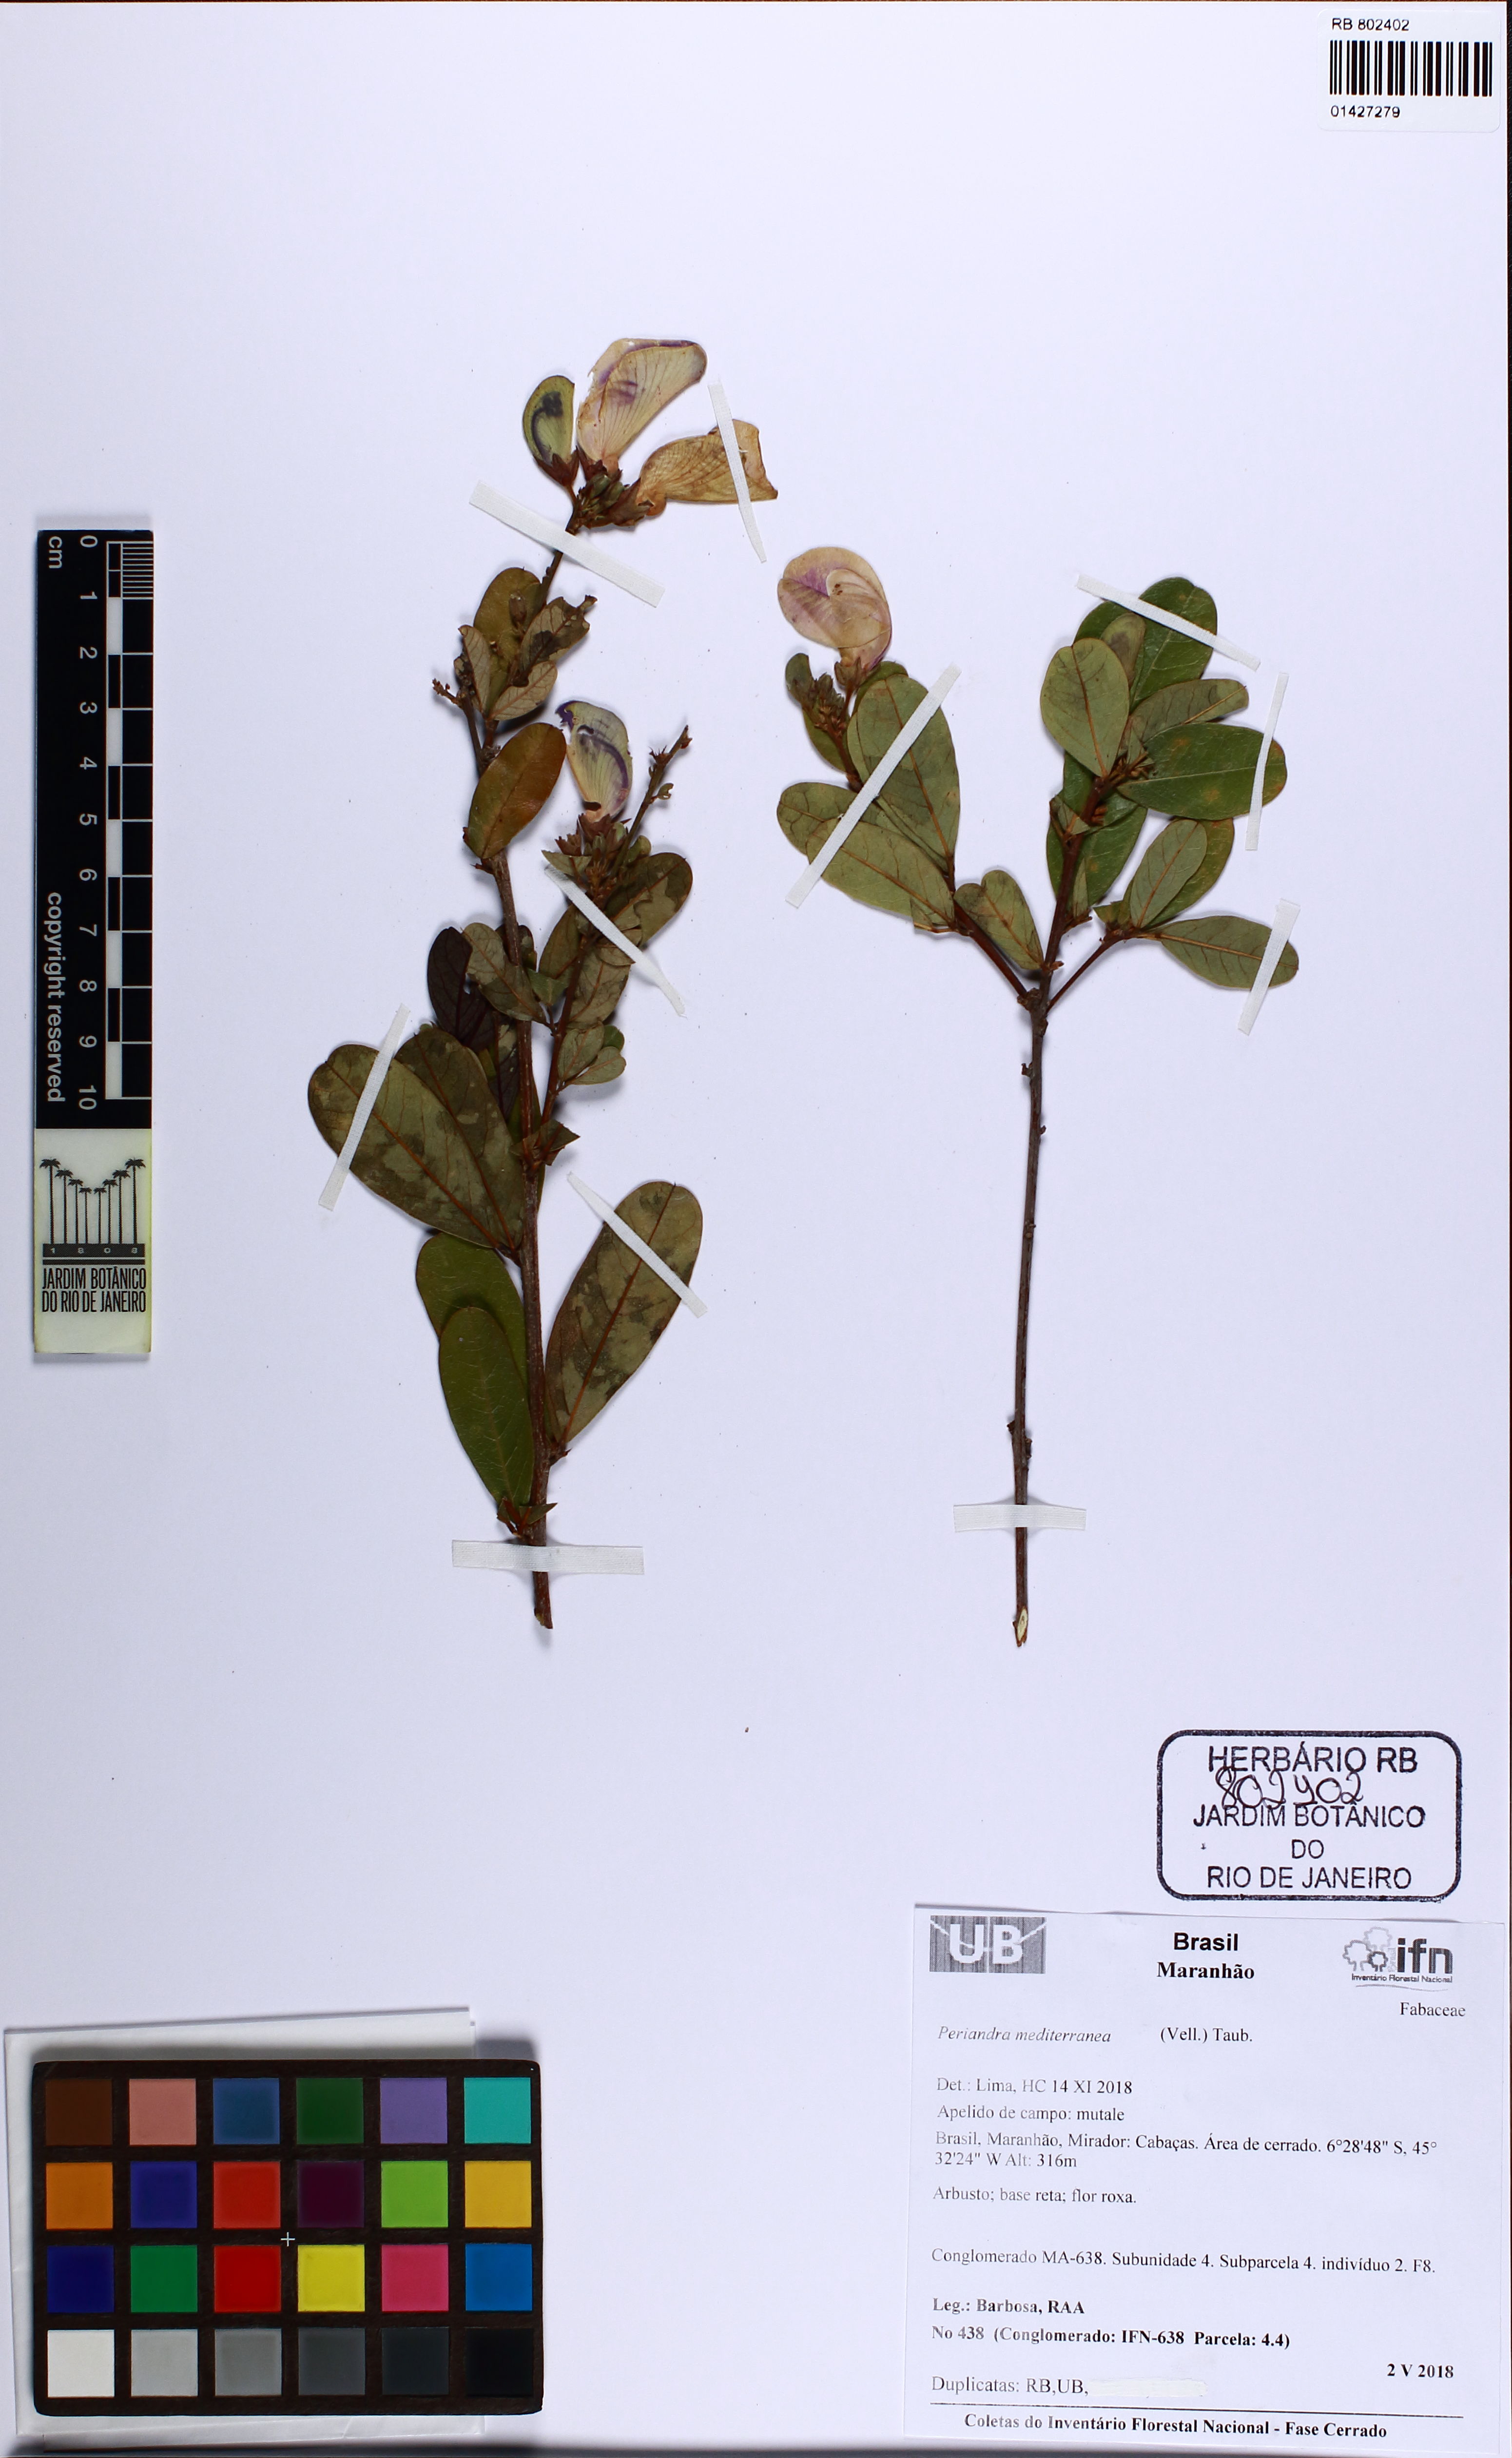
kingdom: Plantae
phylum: Tracheophyta
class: Magnoliopsida
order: Fabales
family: Fabaceae
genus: Periandra
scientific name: Periandra mediterranea
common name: Brazilian licorice
